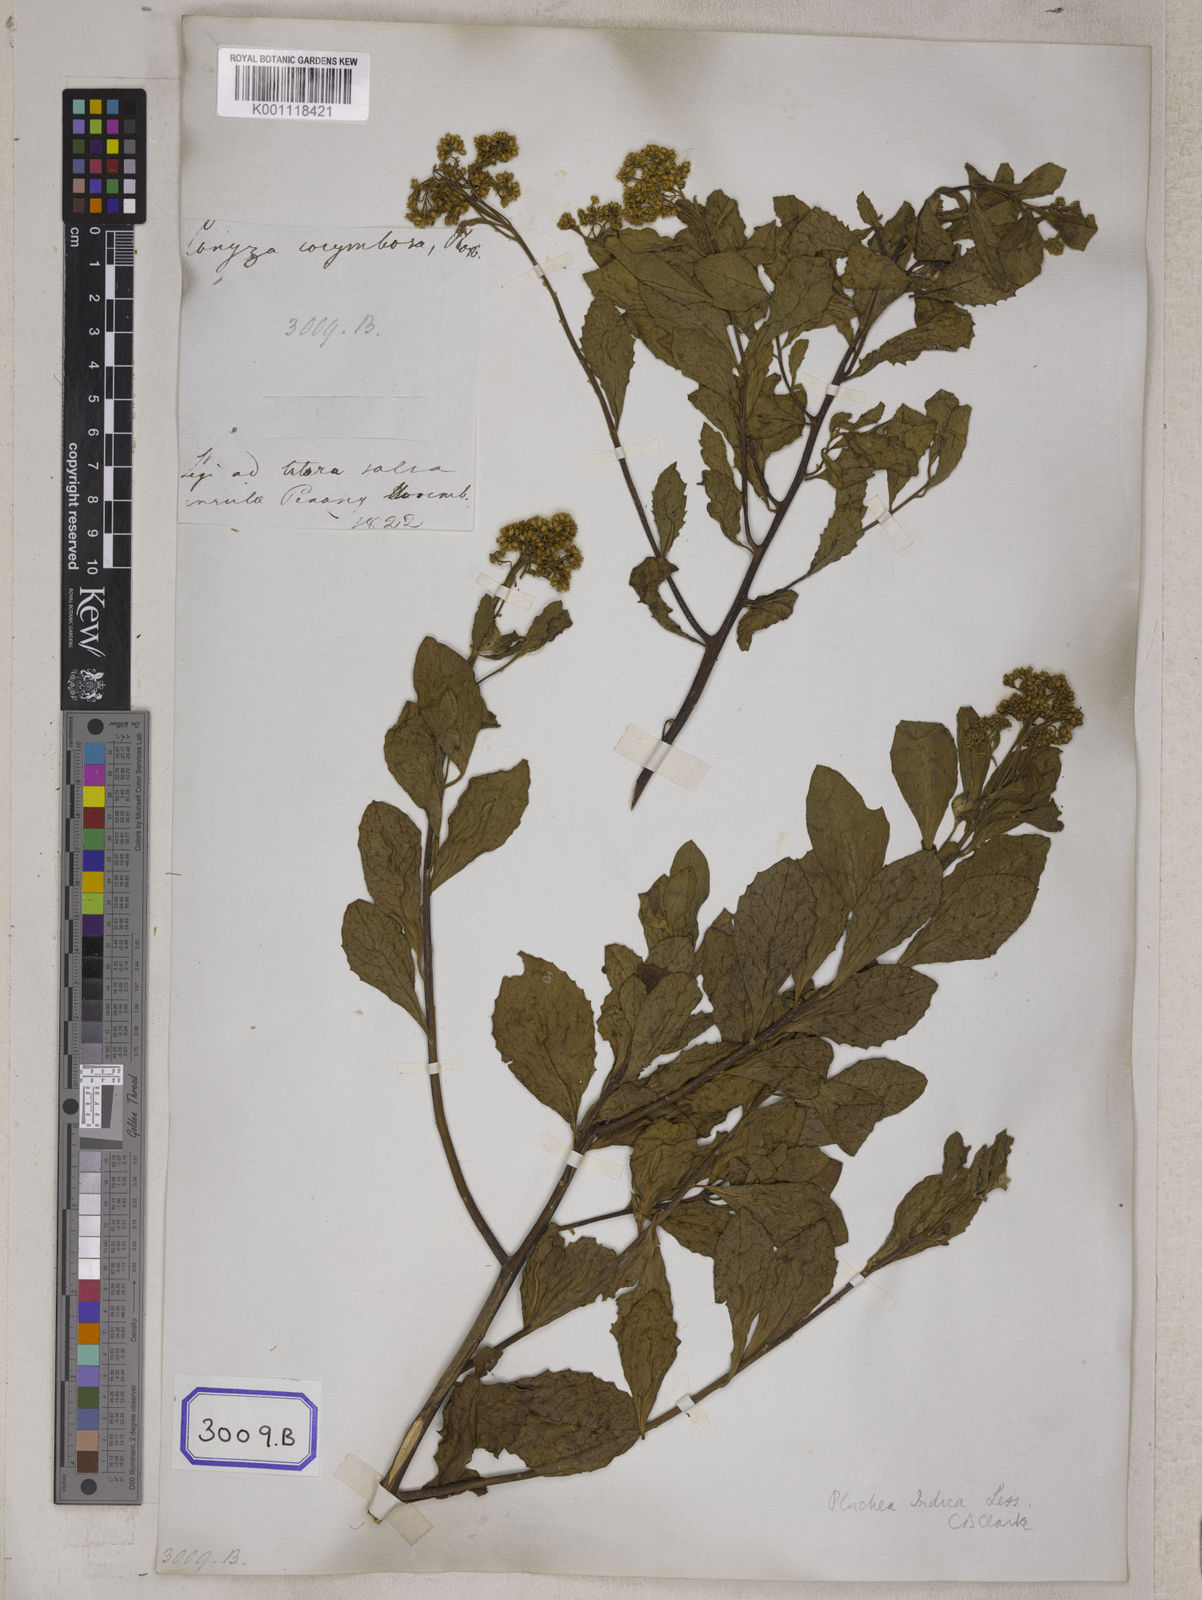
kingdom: Plantae
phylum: Tracheophyta
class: Magnoliopsida
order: Asterales
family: Asteraceae
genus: Pluchea
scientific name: Pluchea indica
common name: Indian fleabane
